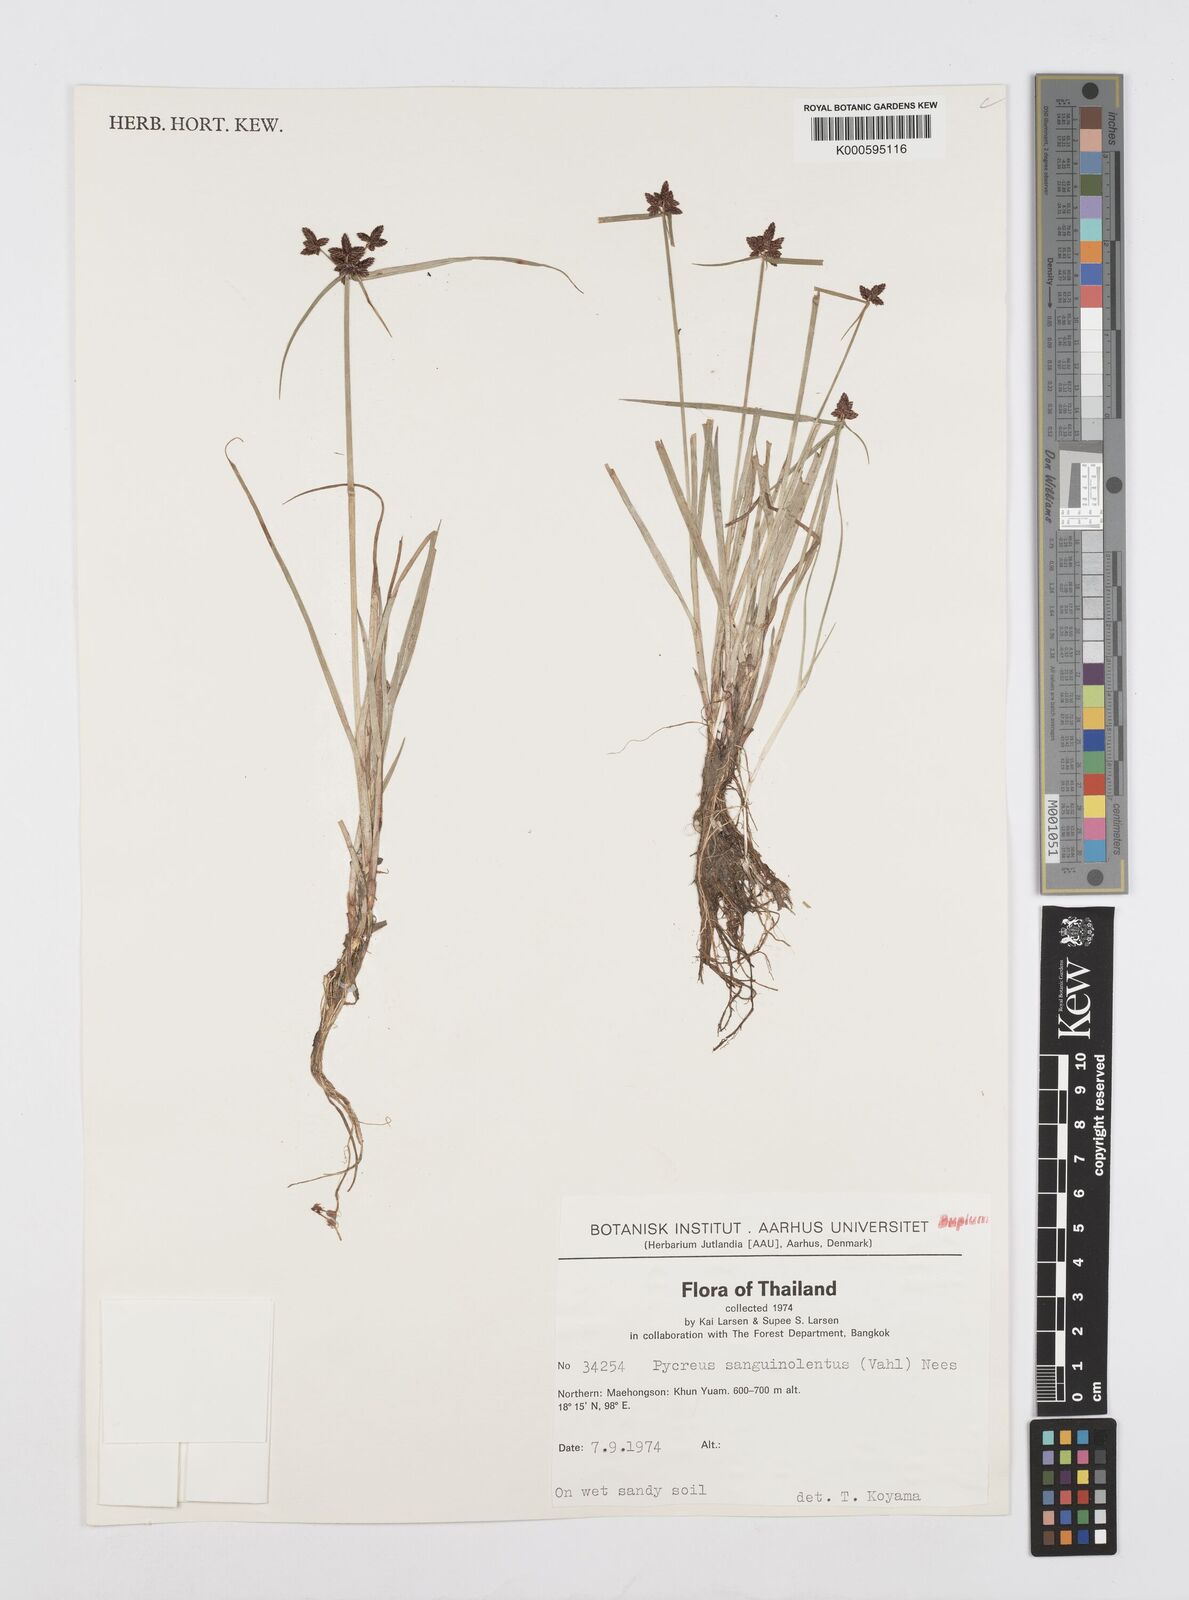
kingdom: Plantae
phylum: Tracheophyta
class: Liliopsida
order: Poales
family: Cyperaceae
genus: Cyperus
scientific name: Cyperus sanguinolentus
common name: Purpleglume flatsedge
